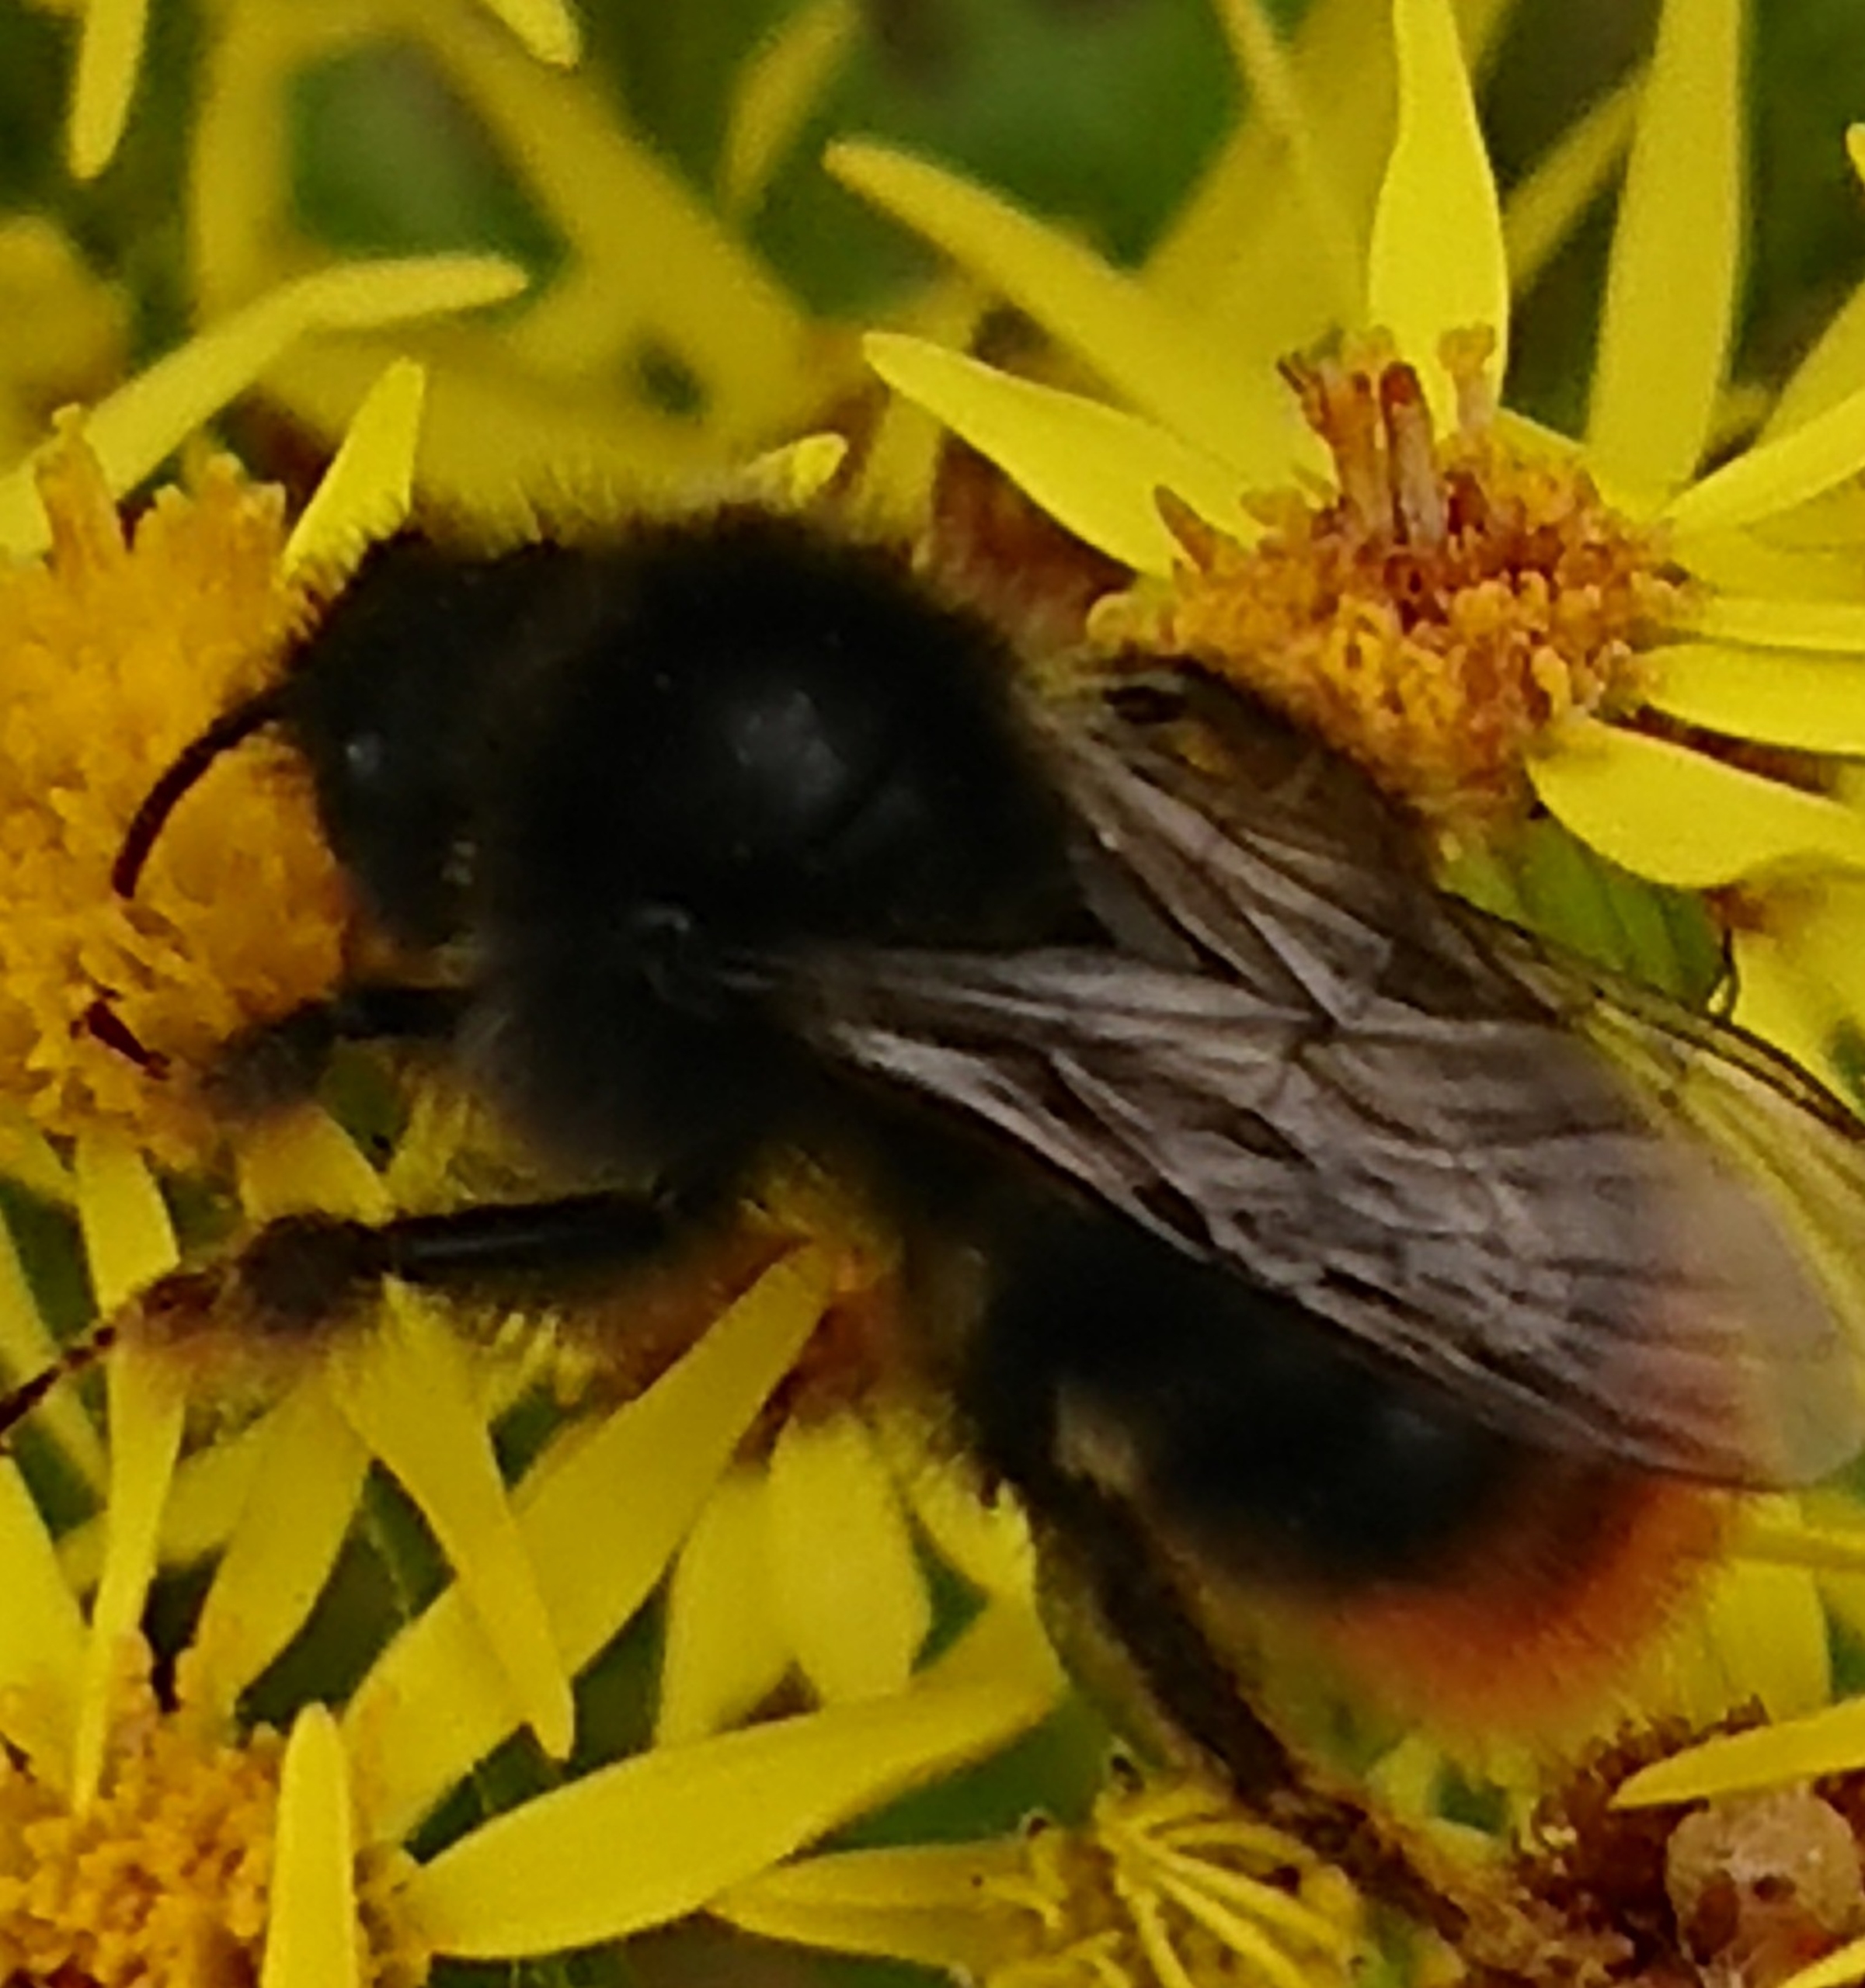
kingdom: Animalia
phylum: Arthropoda
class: Insecta
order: Hymenoptera
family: Apidae
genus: Bombus
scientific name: Bombus lapidarius
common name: Stenhumle
